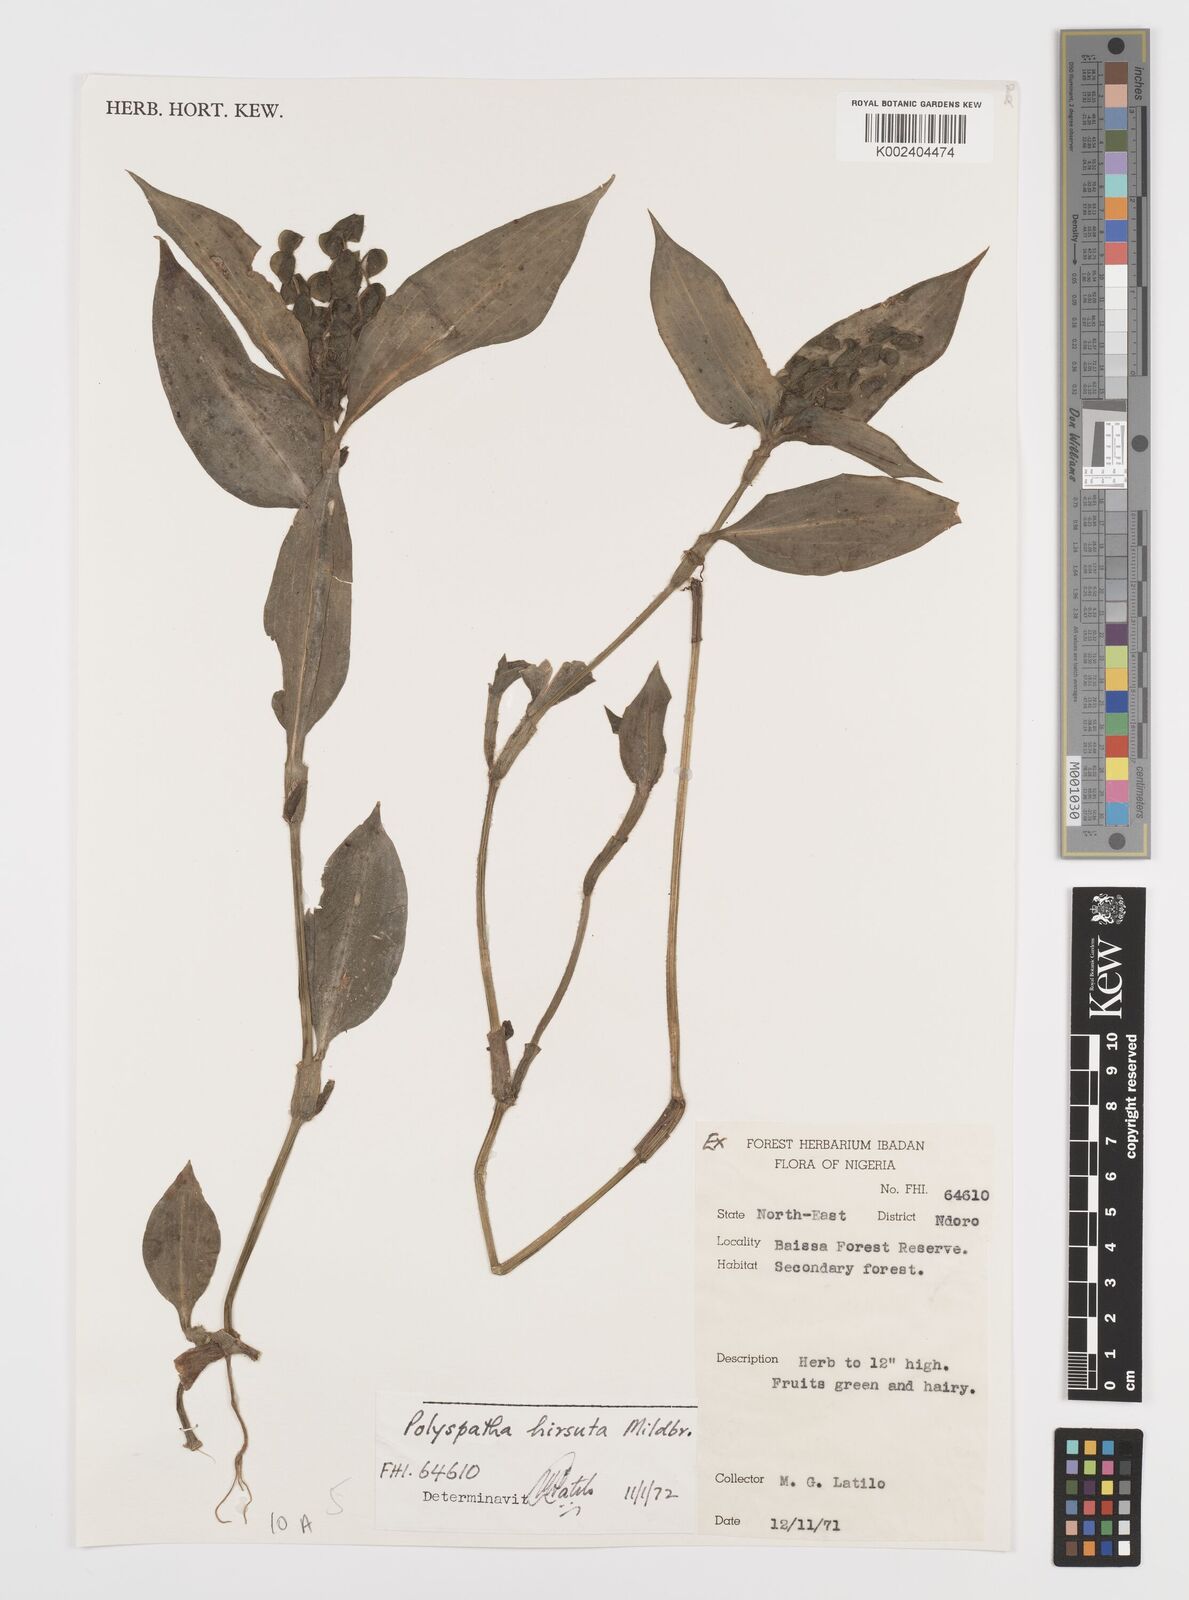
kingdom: Plantae
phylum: Tracheophyta
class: Liliopsida
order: Commelinales
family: Commelinaceae
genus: Polyspatha
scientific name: Polyspatha hirsuta
